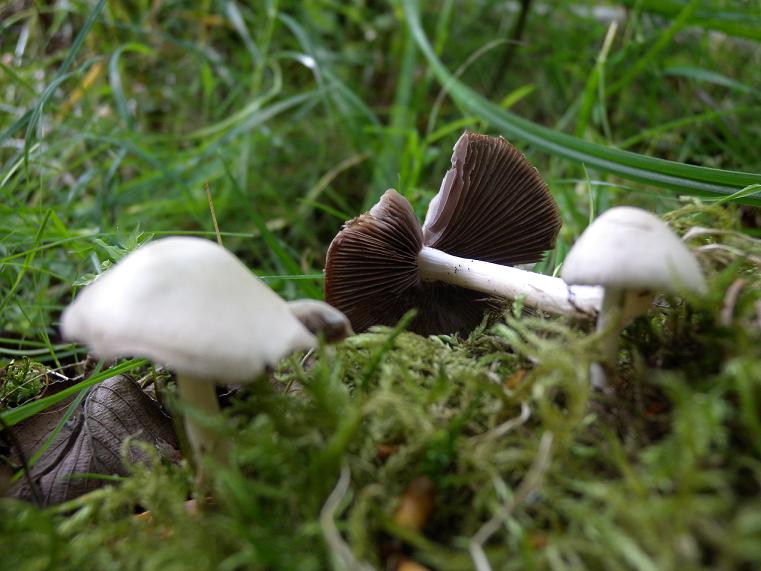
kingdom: Fungi
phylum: Basidiomycota
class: Agaricomycetes
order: Agaricales
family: Psathyrellaceae
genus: Candolleomyces
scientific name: Candolleomyces candolleanus
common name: Candolles mørkhat
